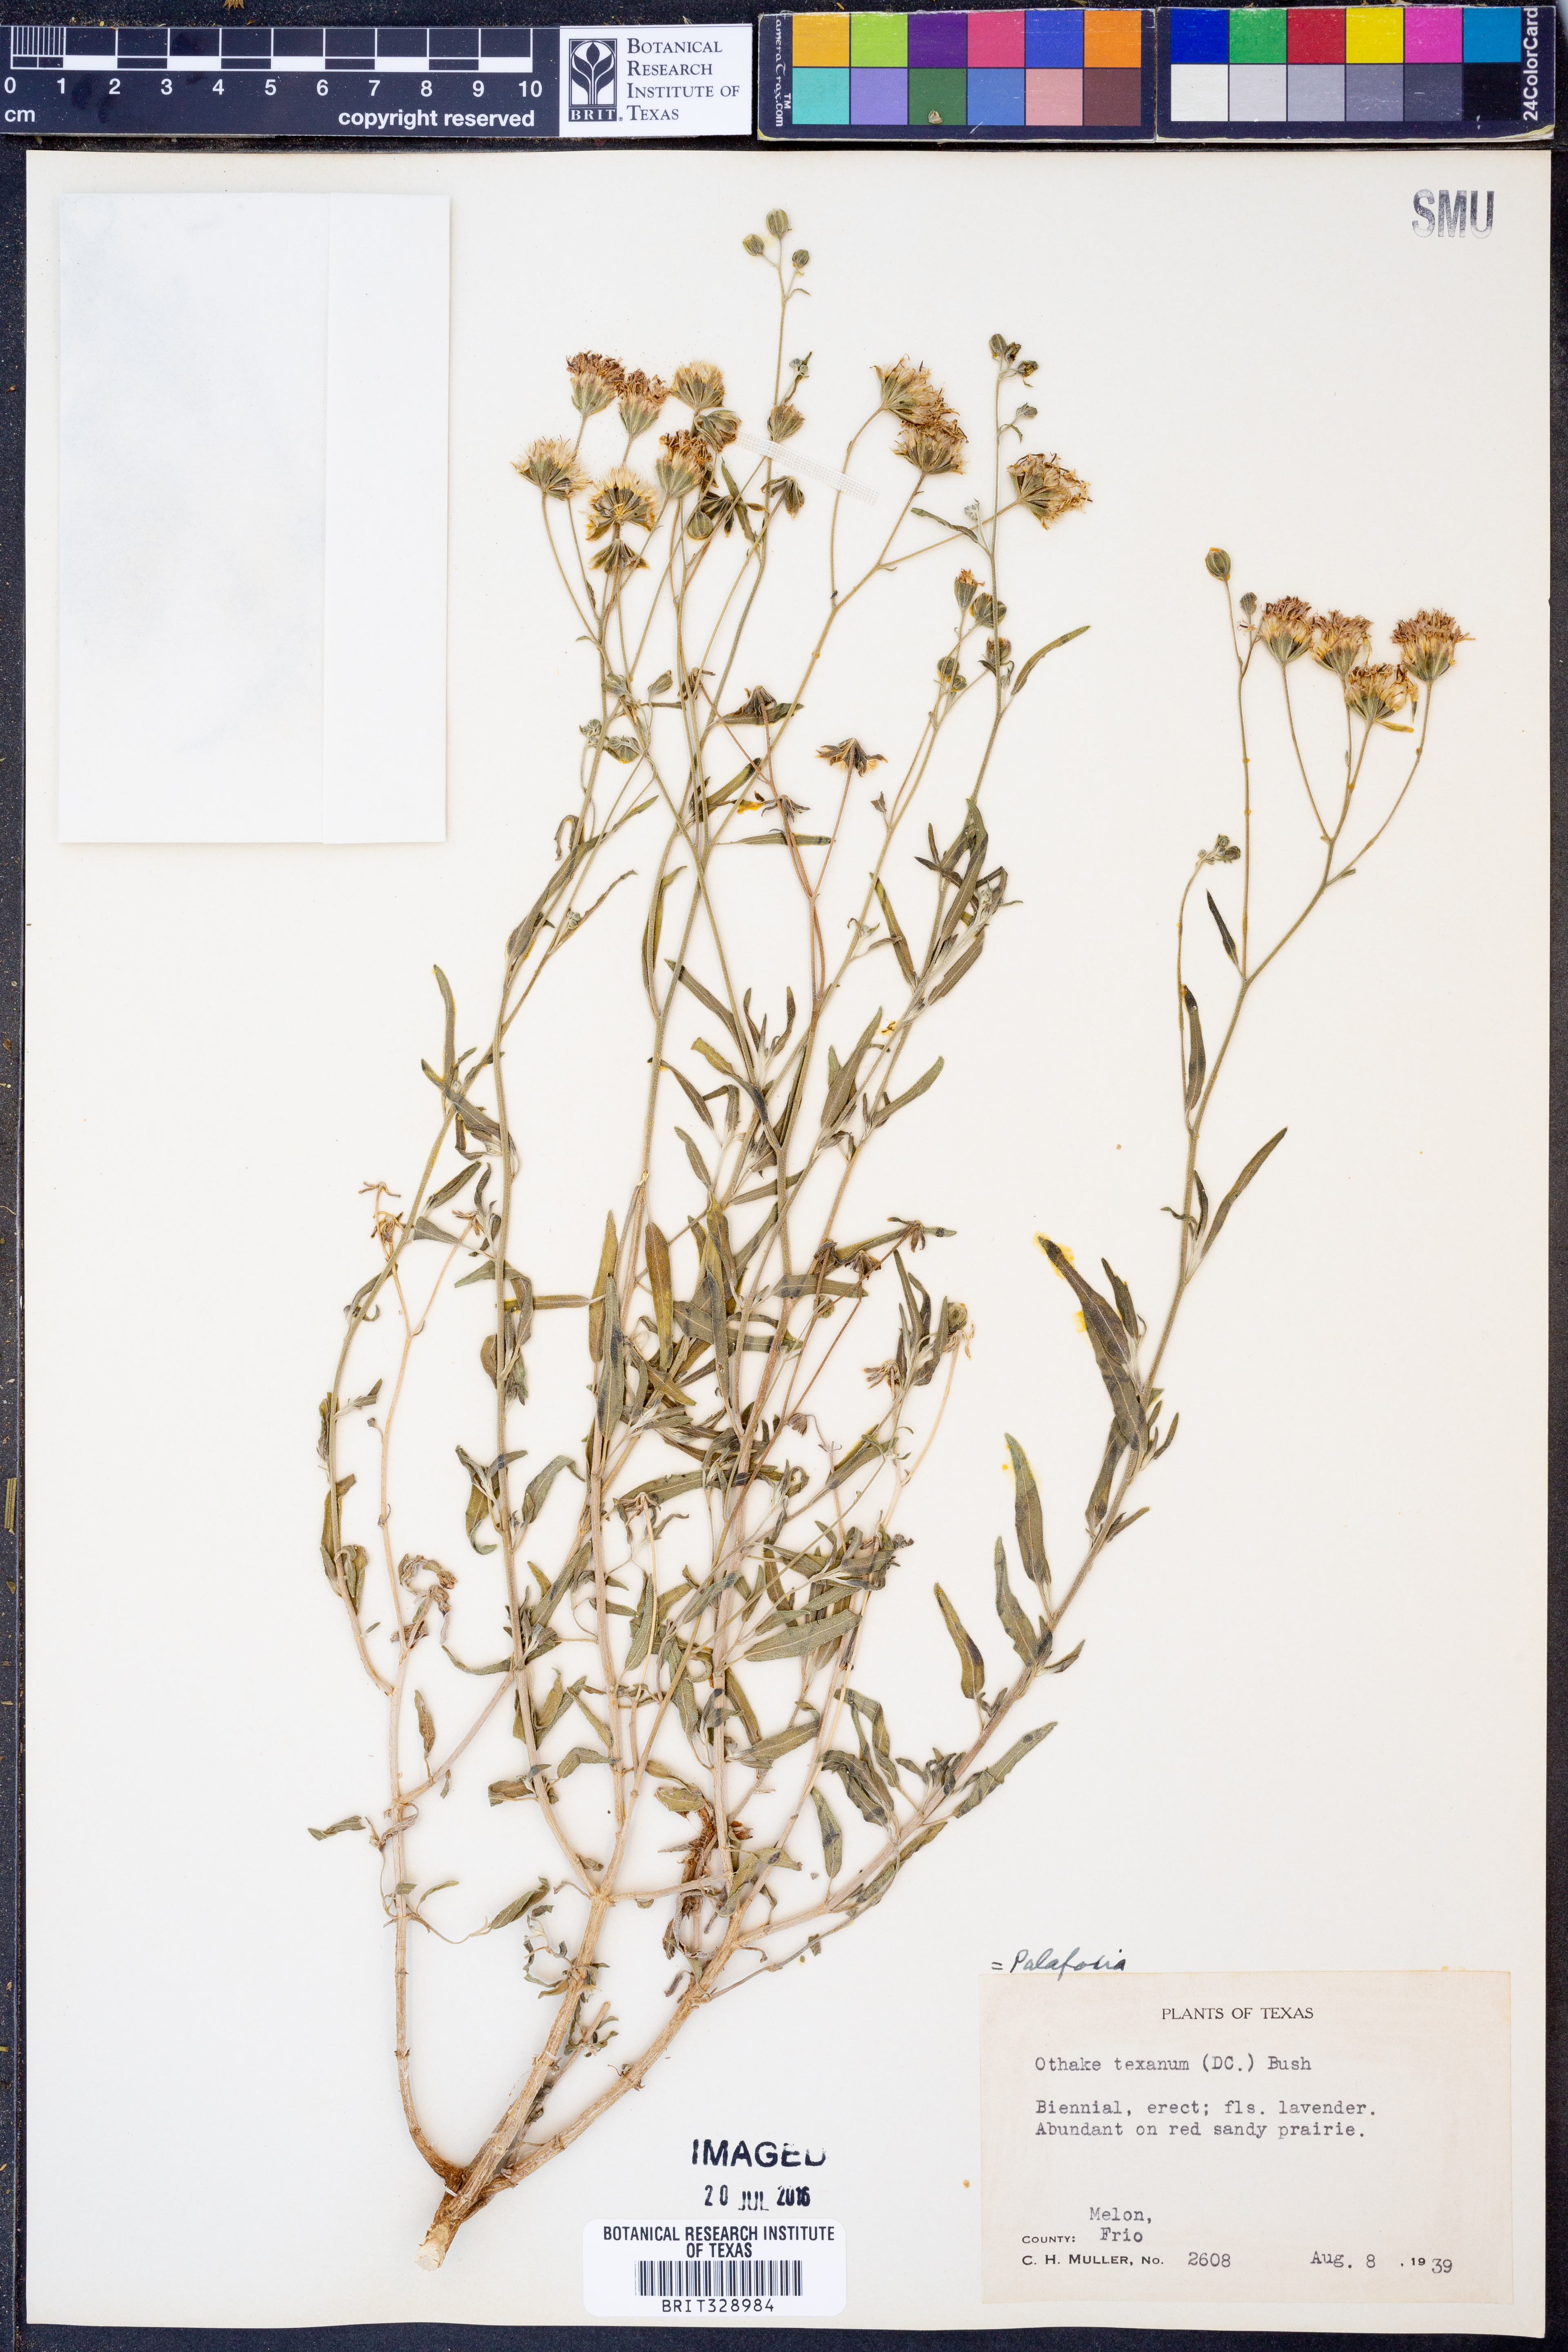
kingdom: Plantae
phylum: Tracheophyta
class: Magnoliopsida
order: Asterales
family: Asteraceae
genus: Palafoxia
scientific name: Palafoxia
